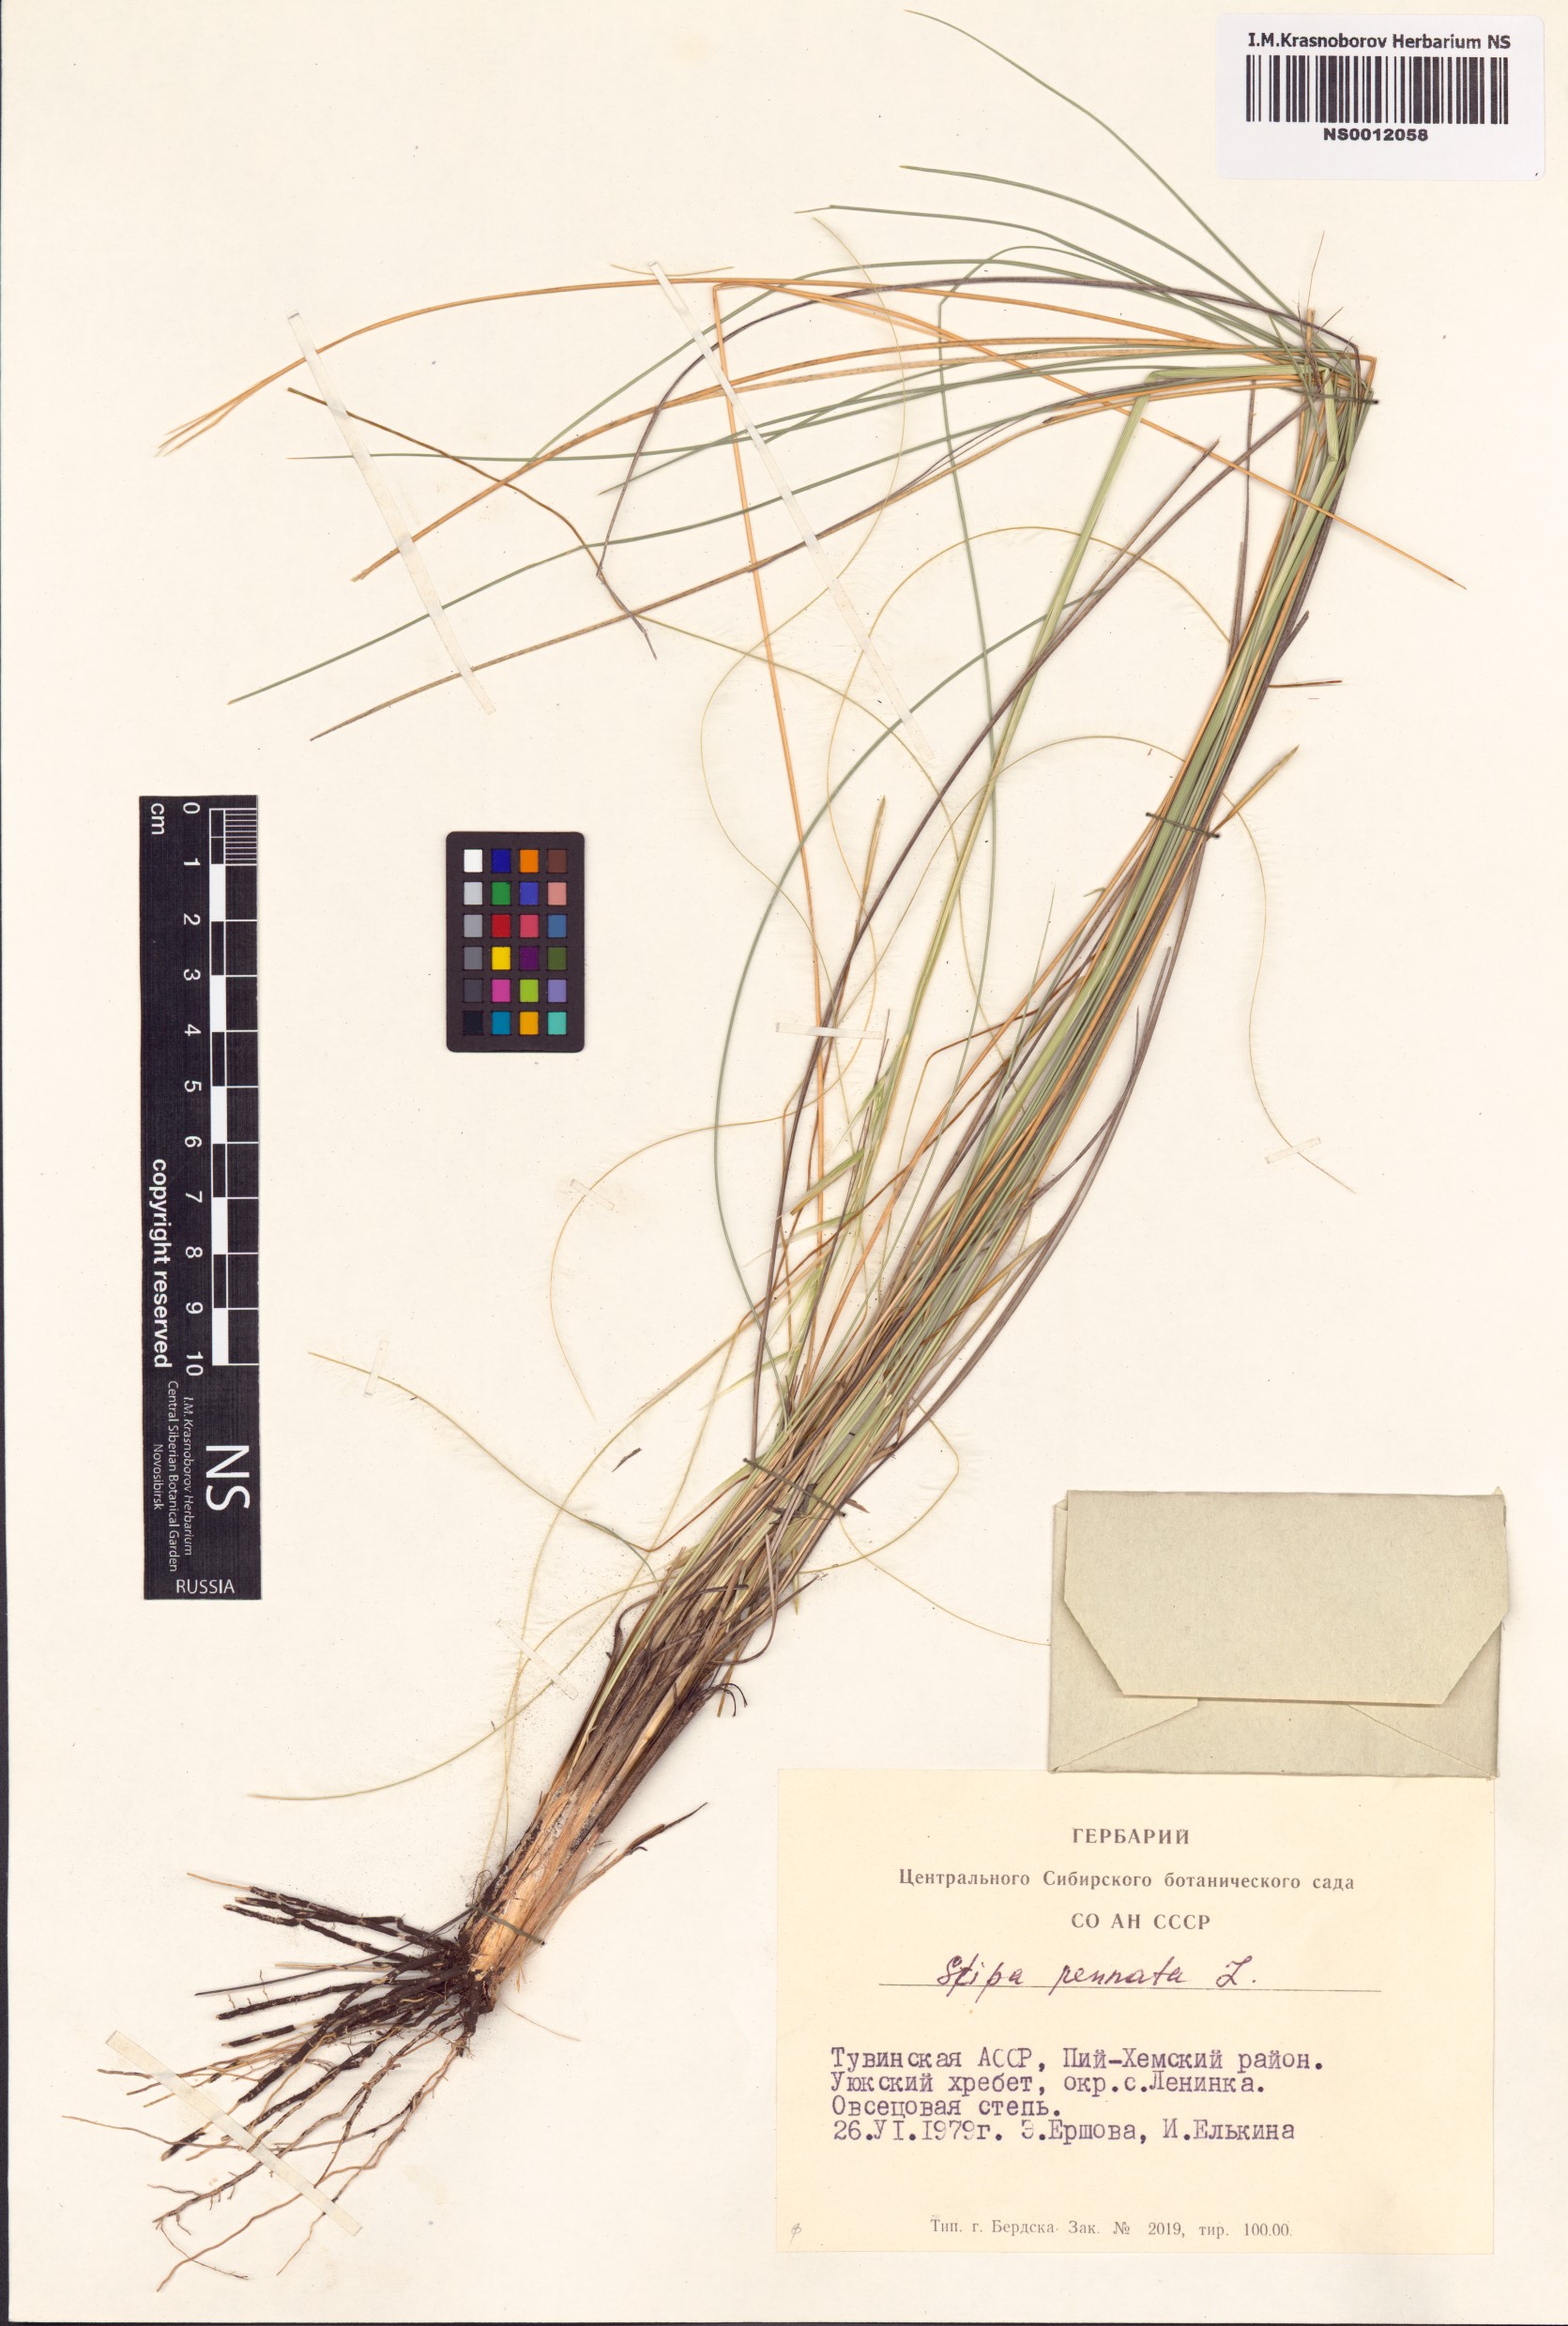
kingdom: Plantae
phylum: Tracheophyta
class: Liliopsida
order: Poales
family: Poaceae
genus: Stipa
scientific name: Stipa pennata
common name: European feather grass
